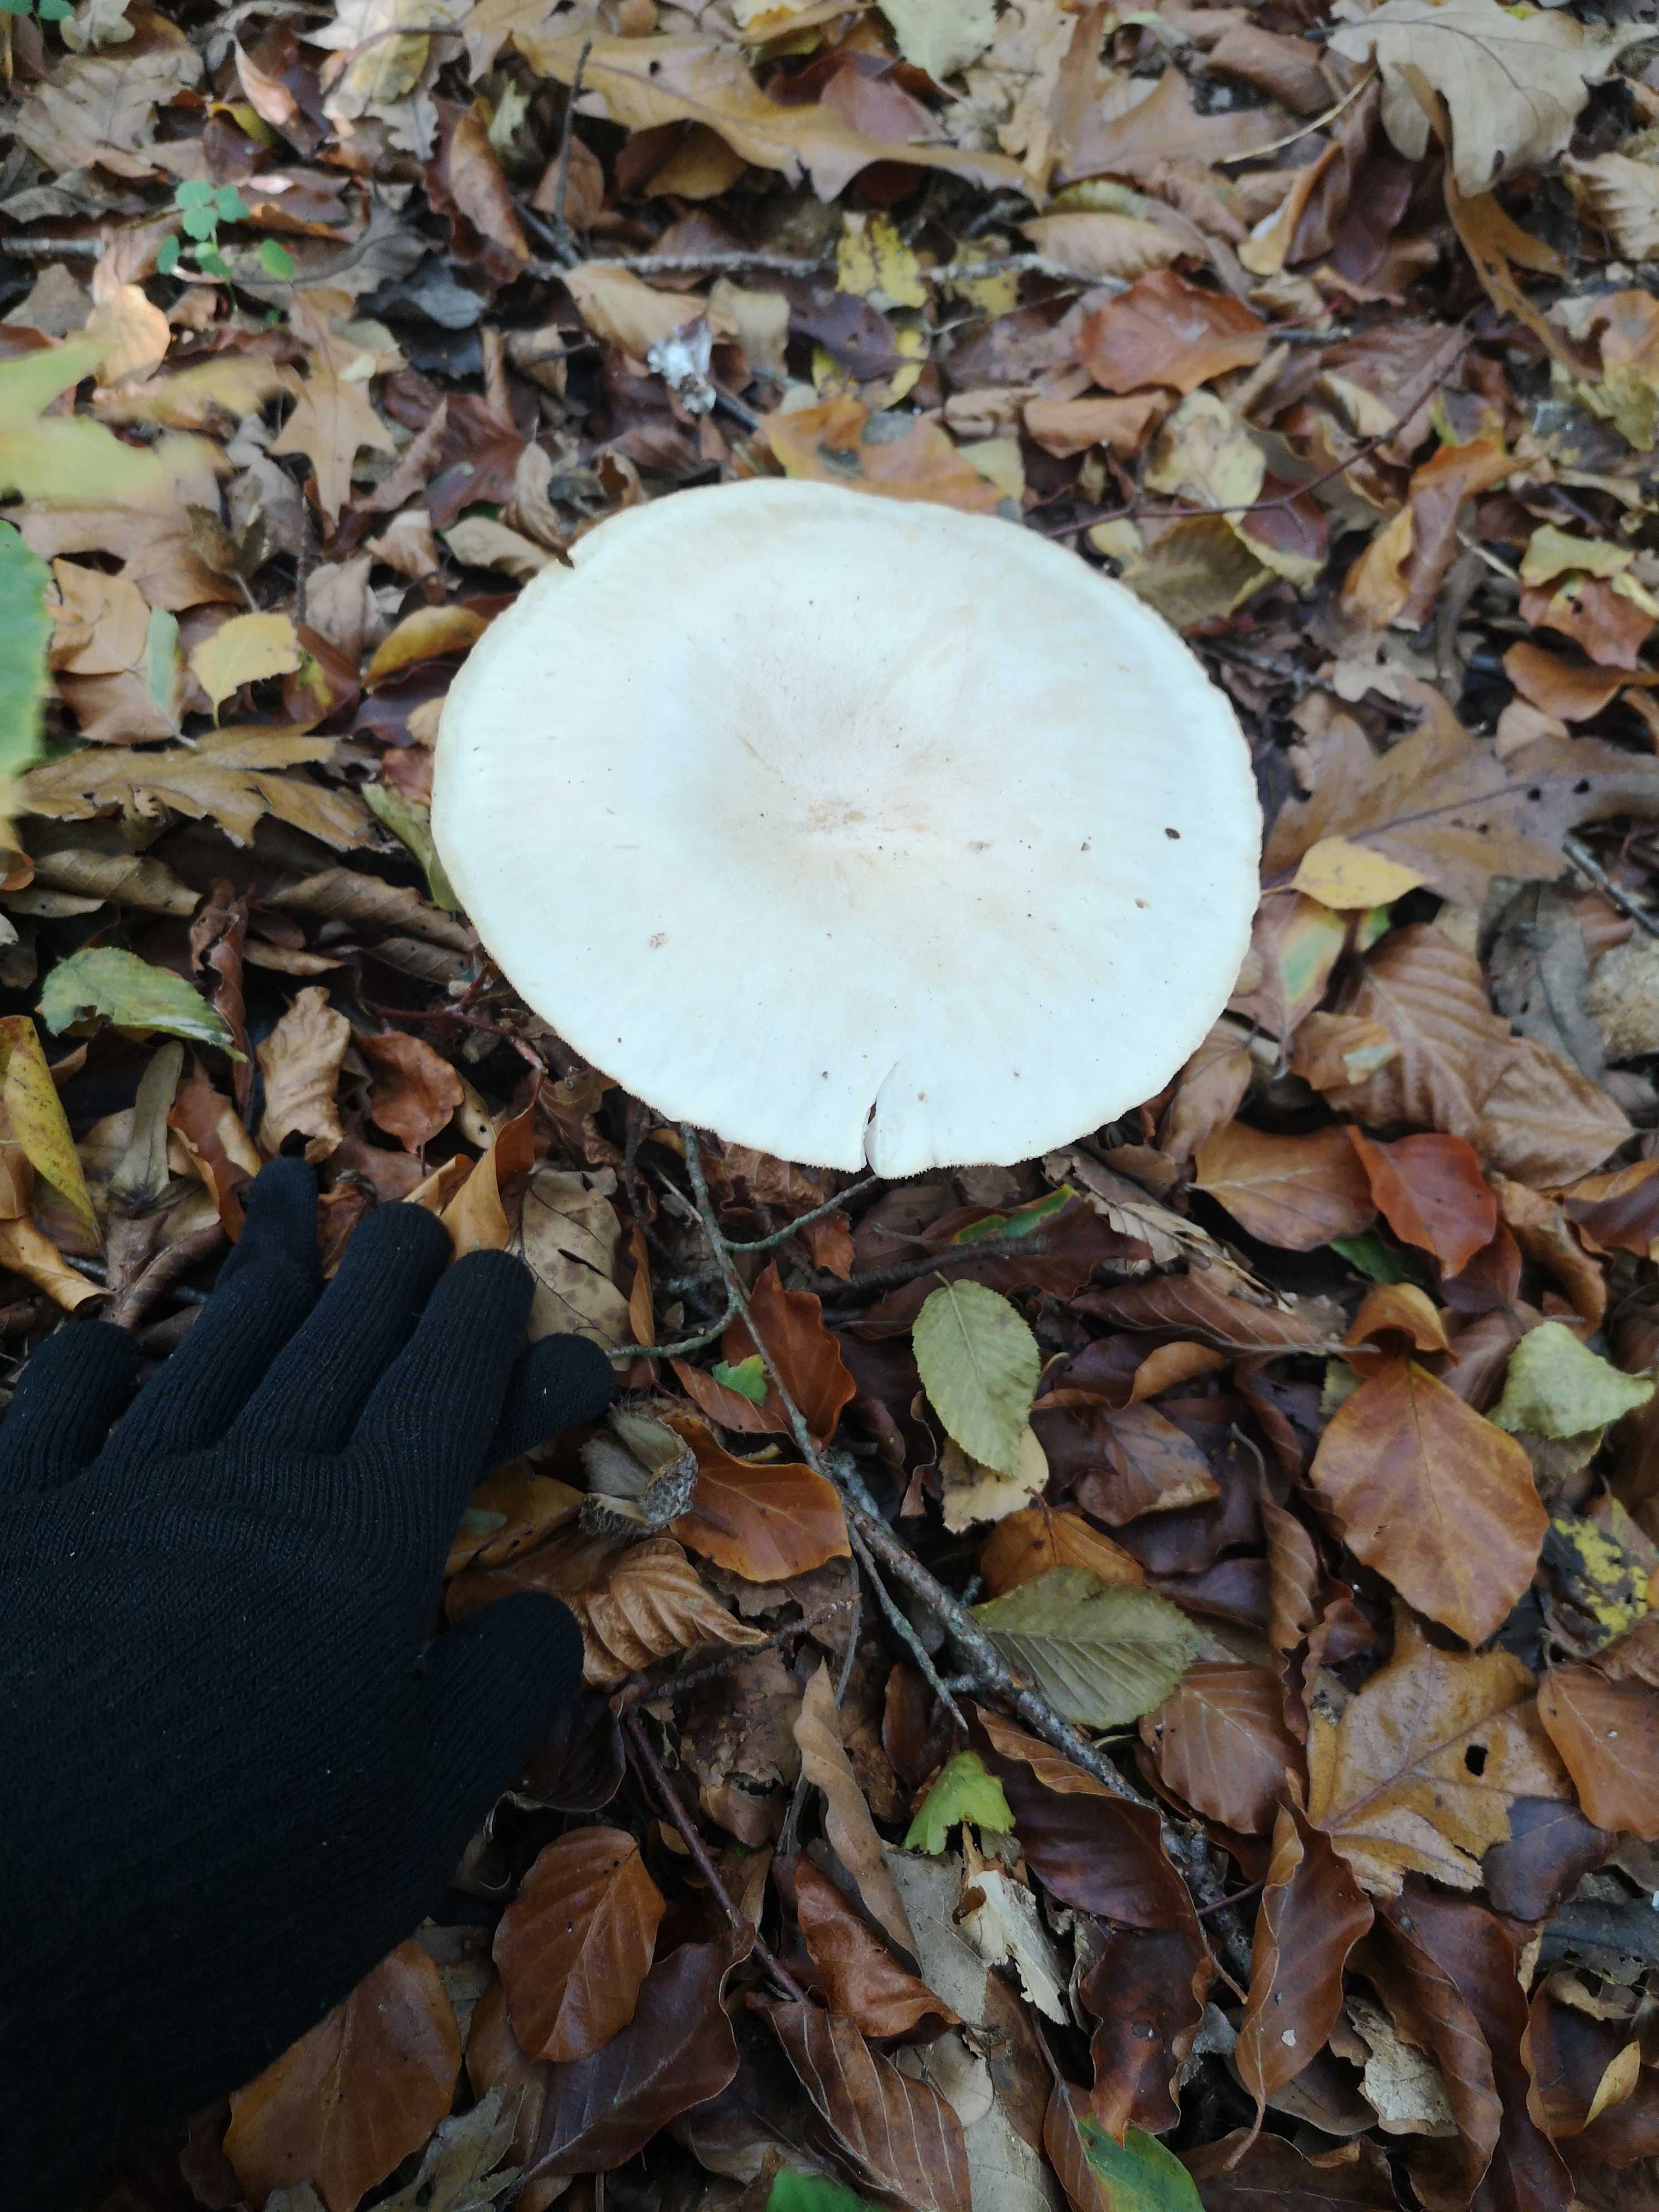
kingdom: Fungi
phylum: Basidiomycota
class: Agaricomycetes
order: Agaricales
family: Tricholomataceae
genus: Infundibulicybe
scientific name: Infundibulicybe geotropa
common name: stor tragthat
